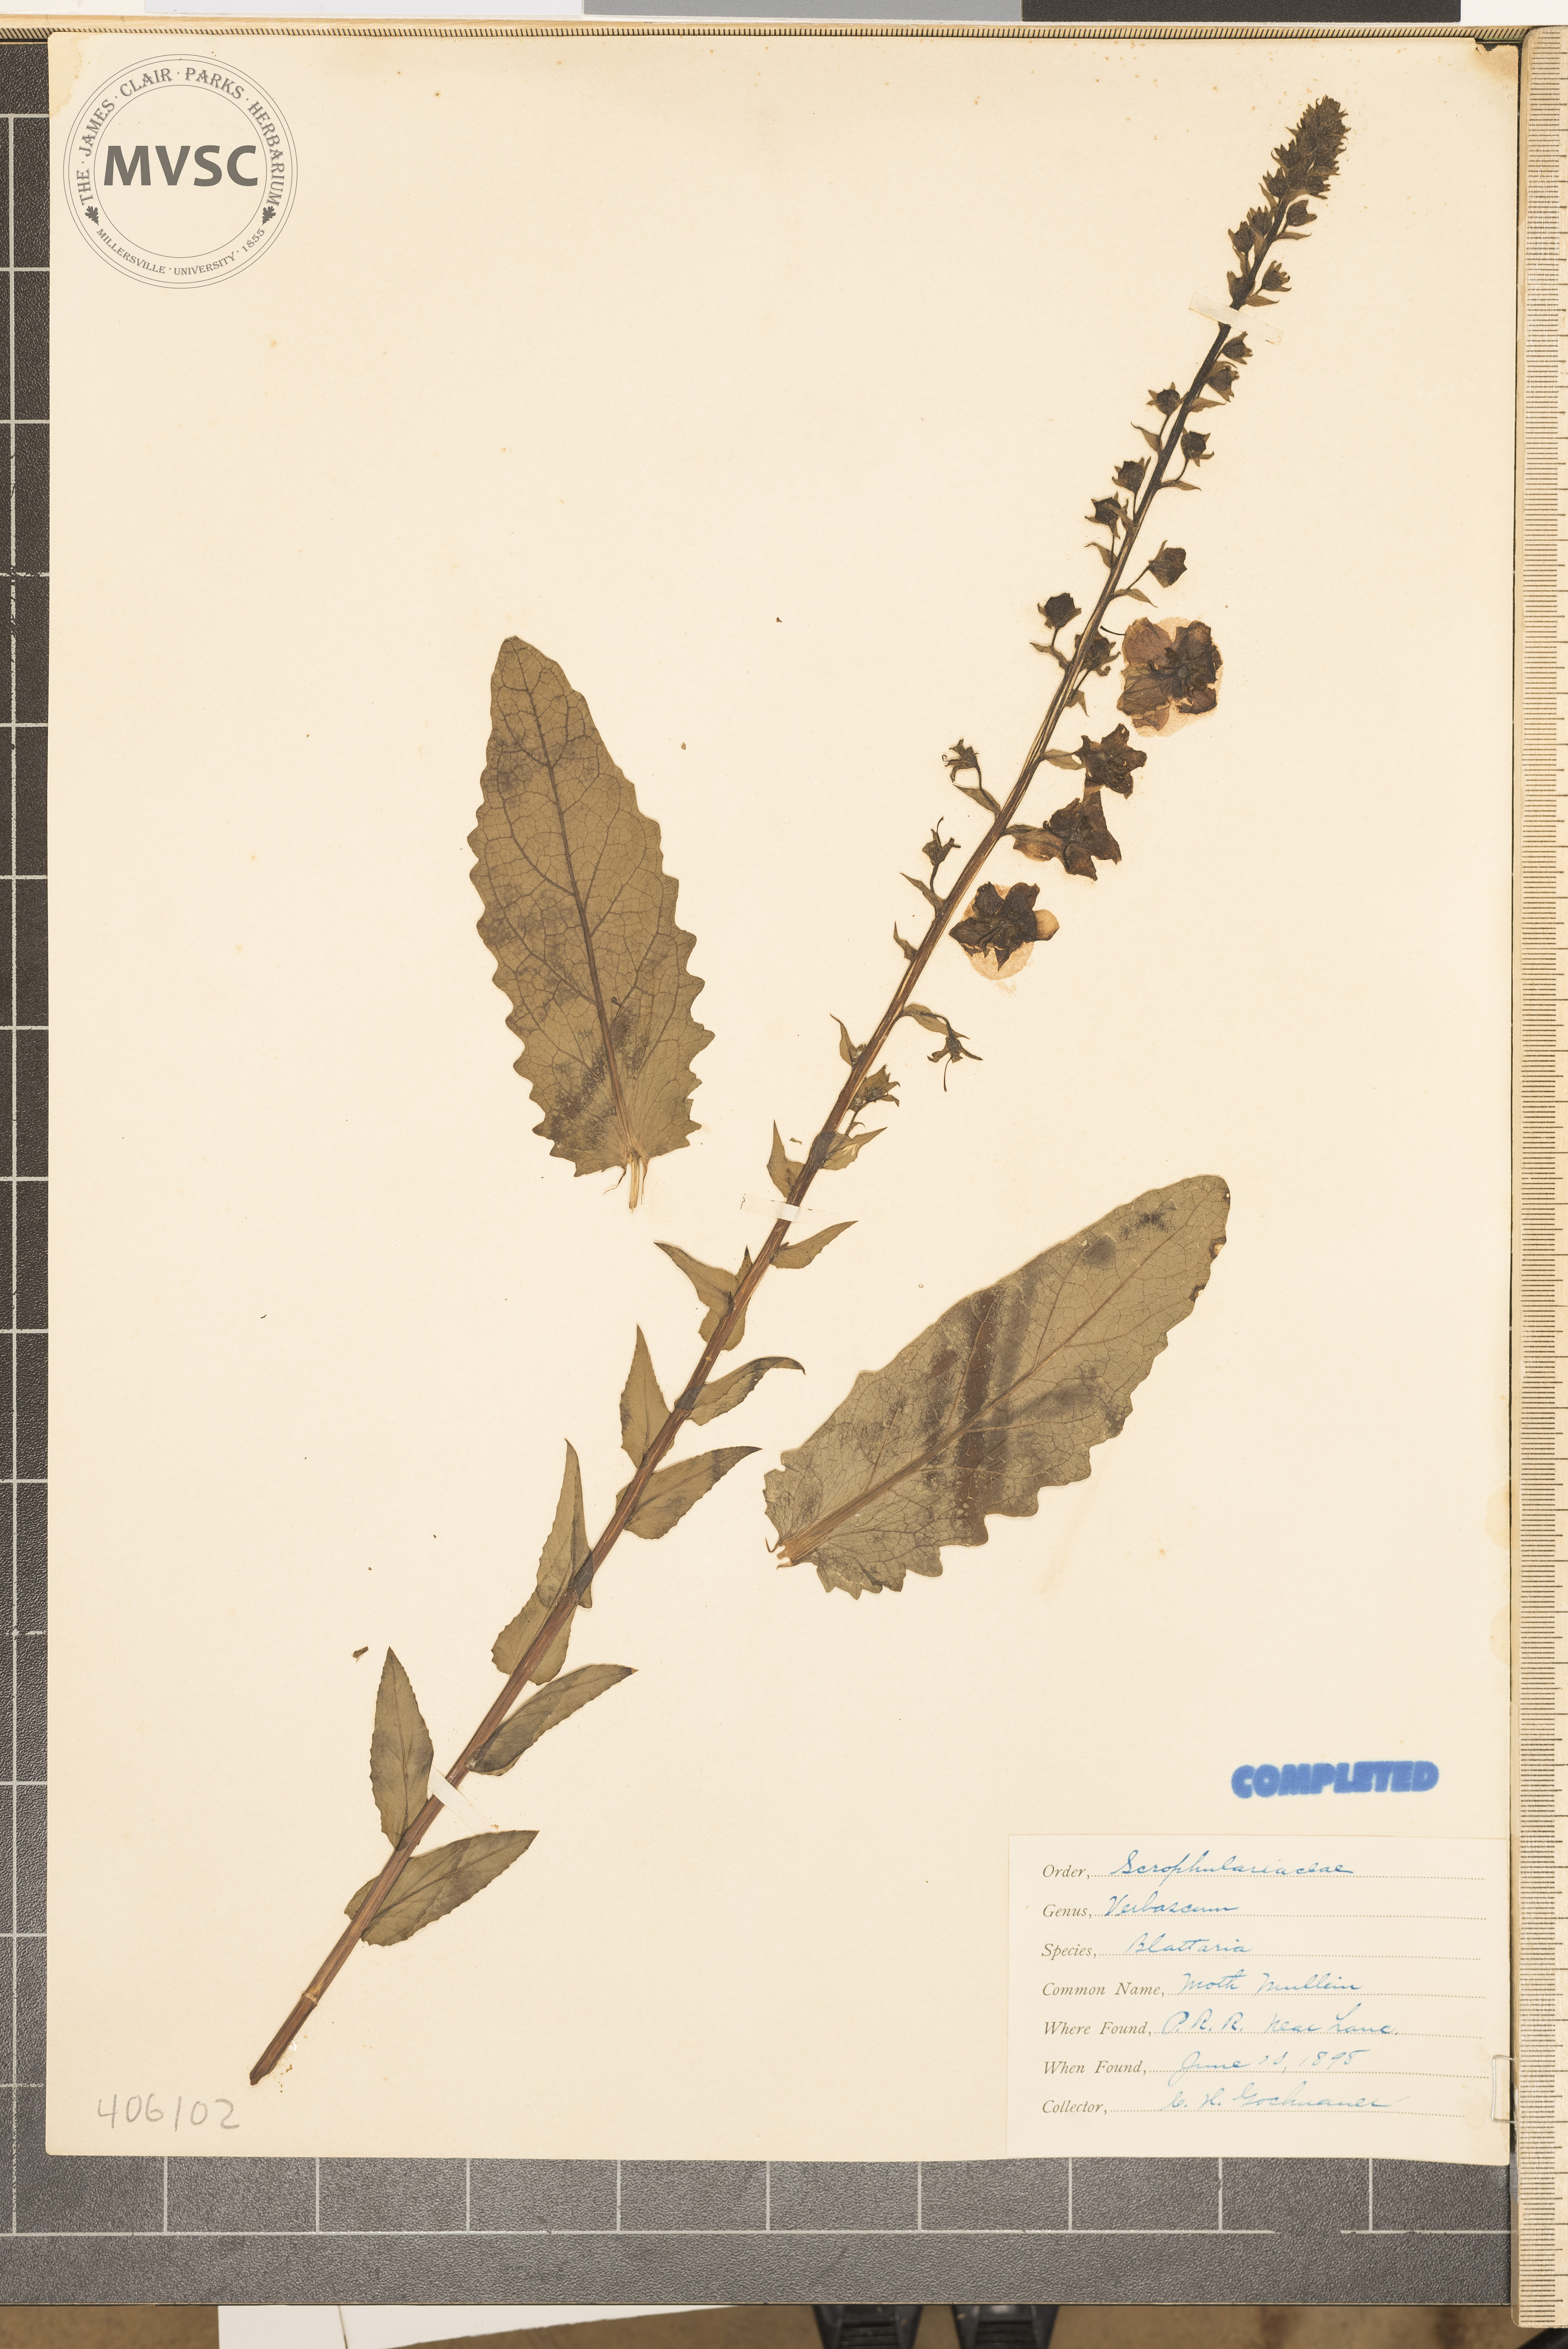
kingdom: Plantae
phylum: Tracheophyta
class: Magnoliopsida
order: Lamiales
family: Scrophulariaceae
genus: Verbascum
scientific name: Verbascum blattaria
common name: Moth mullein
